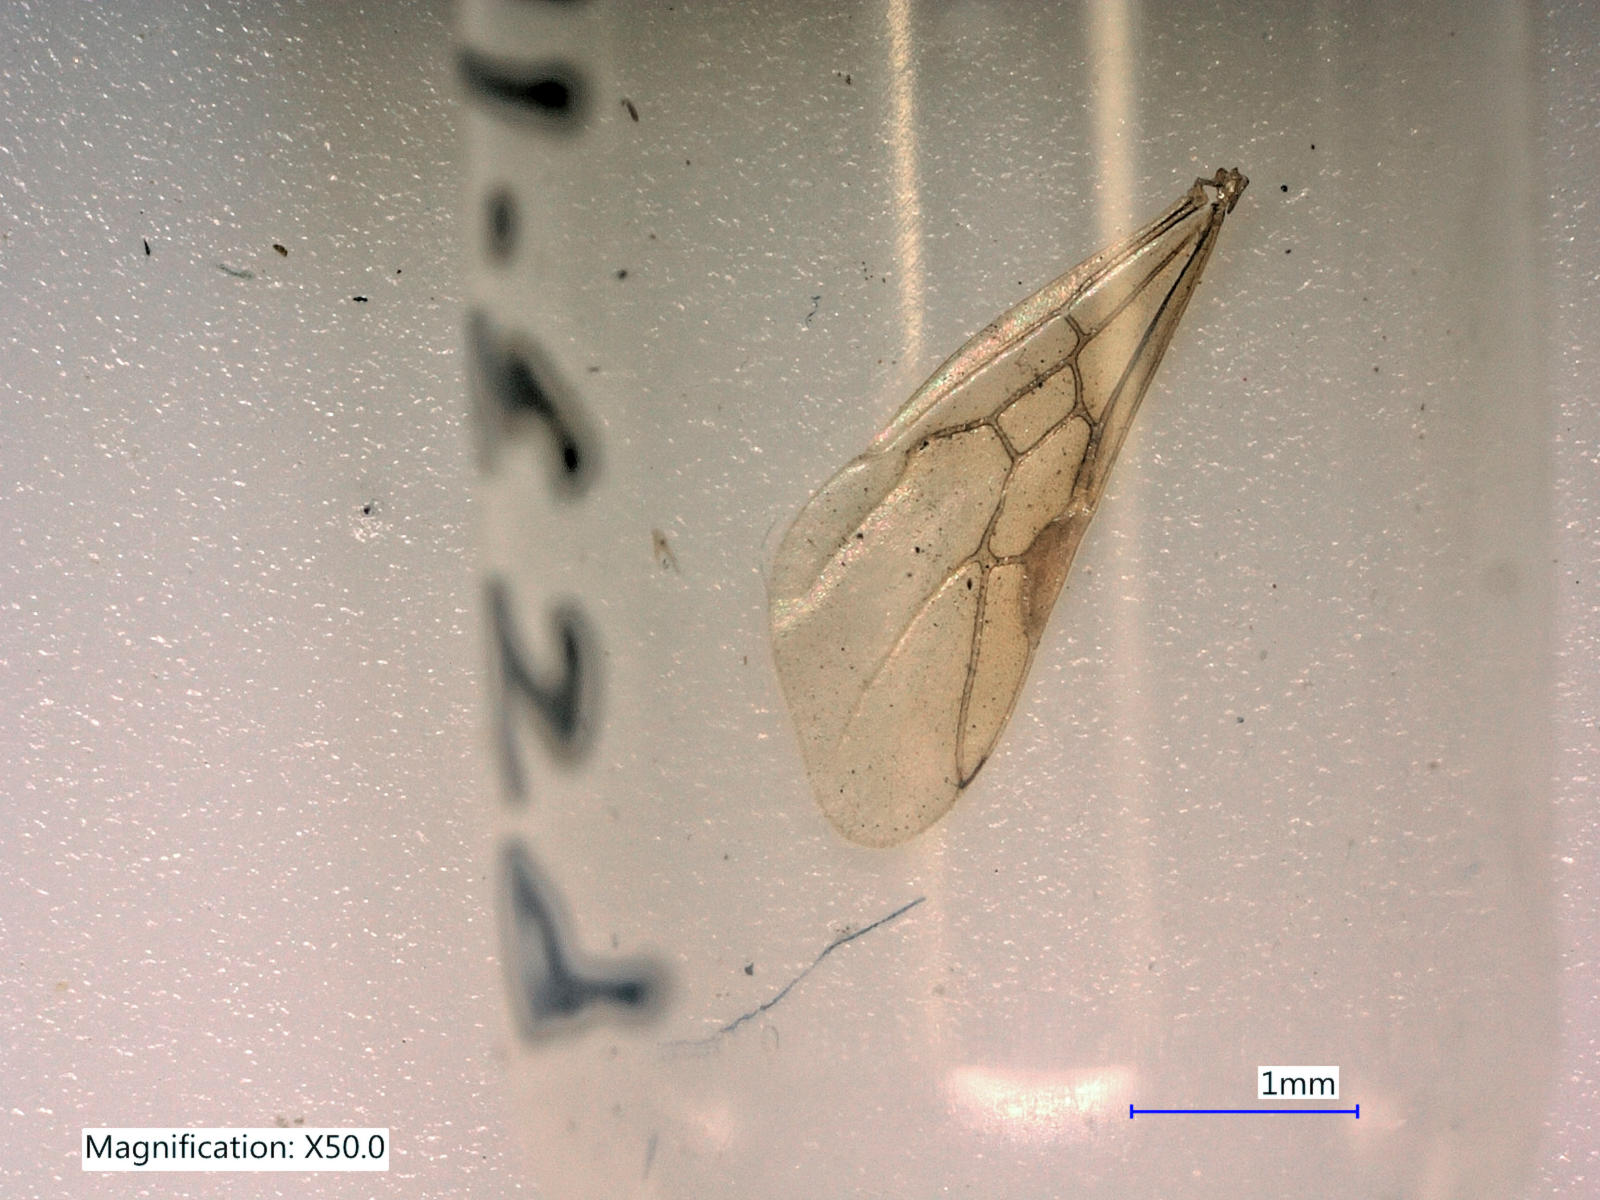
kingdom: Animalia
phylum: Arthropoda
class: Insecta
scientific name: Insecta
